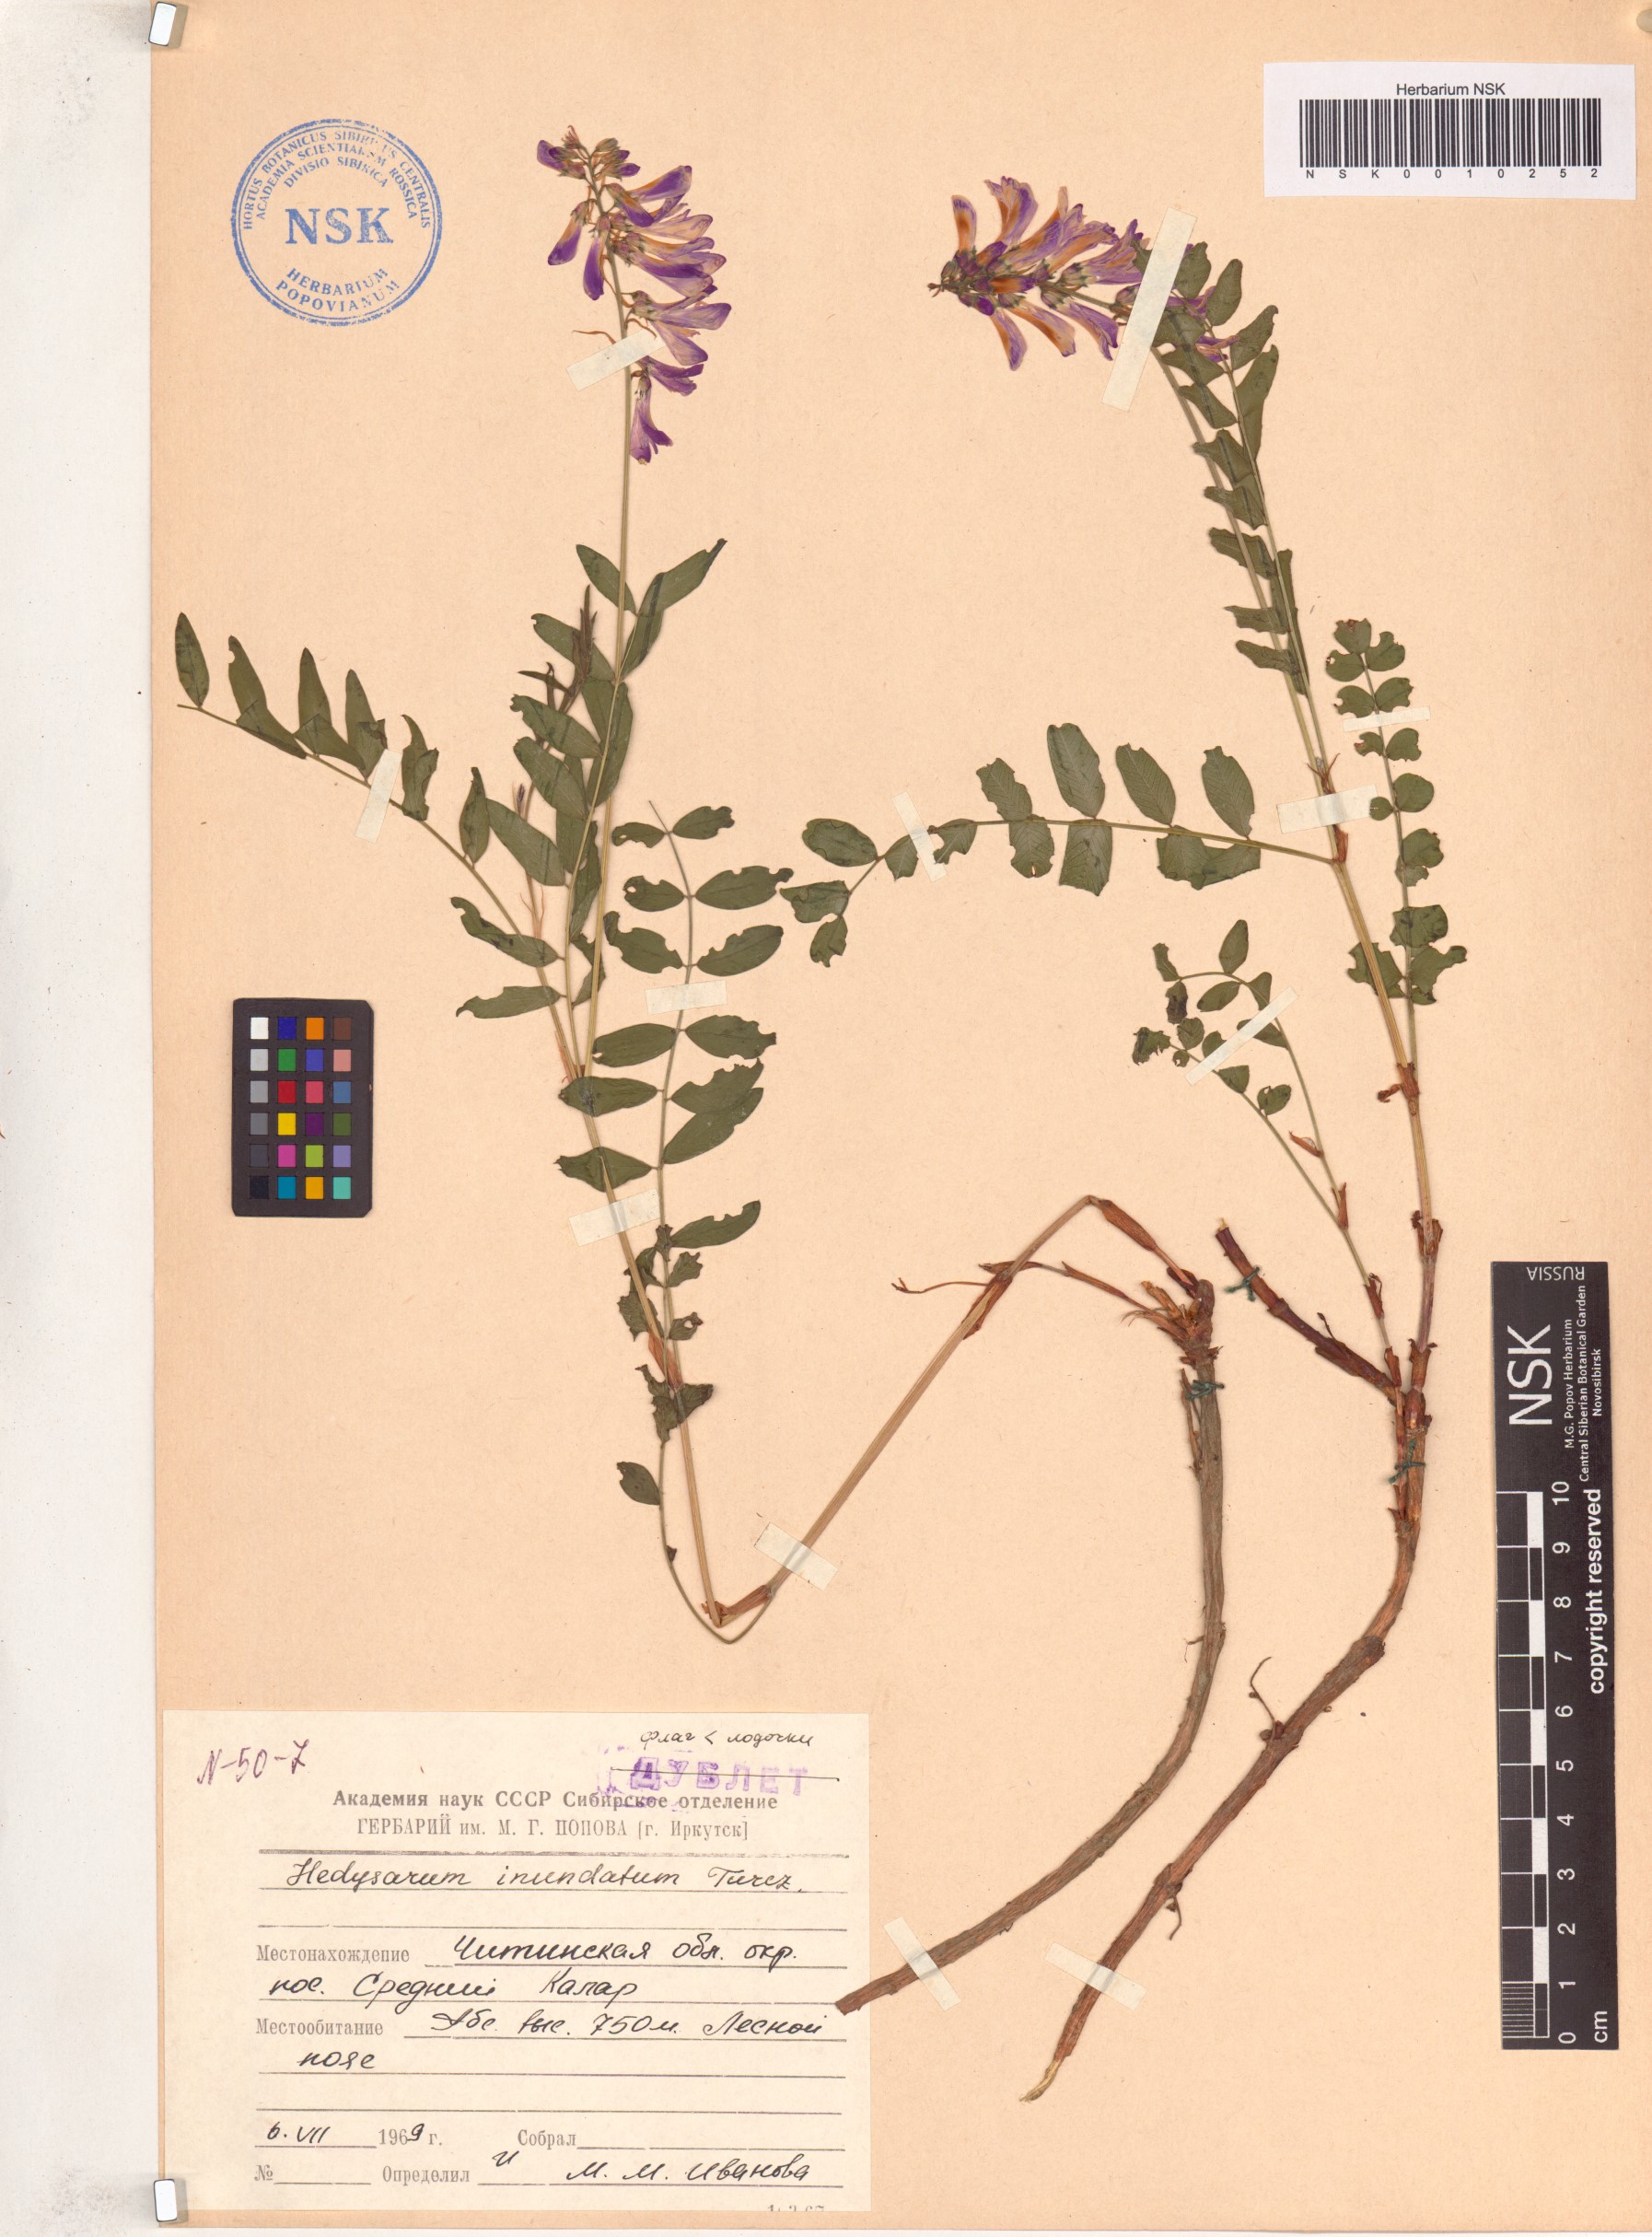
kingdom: Plantae
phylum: Tracheophyta
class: Magnoliopsida
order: Fabales
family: Fabaceae
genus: Hedysarum
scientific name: Hedysarum inundatum
